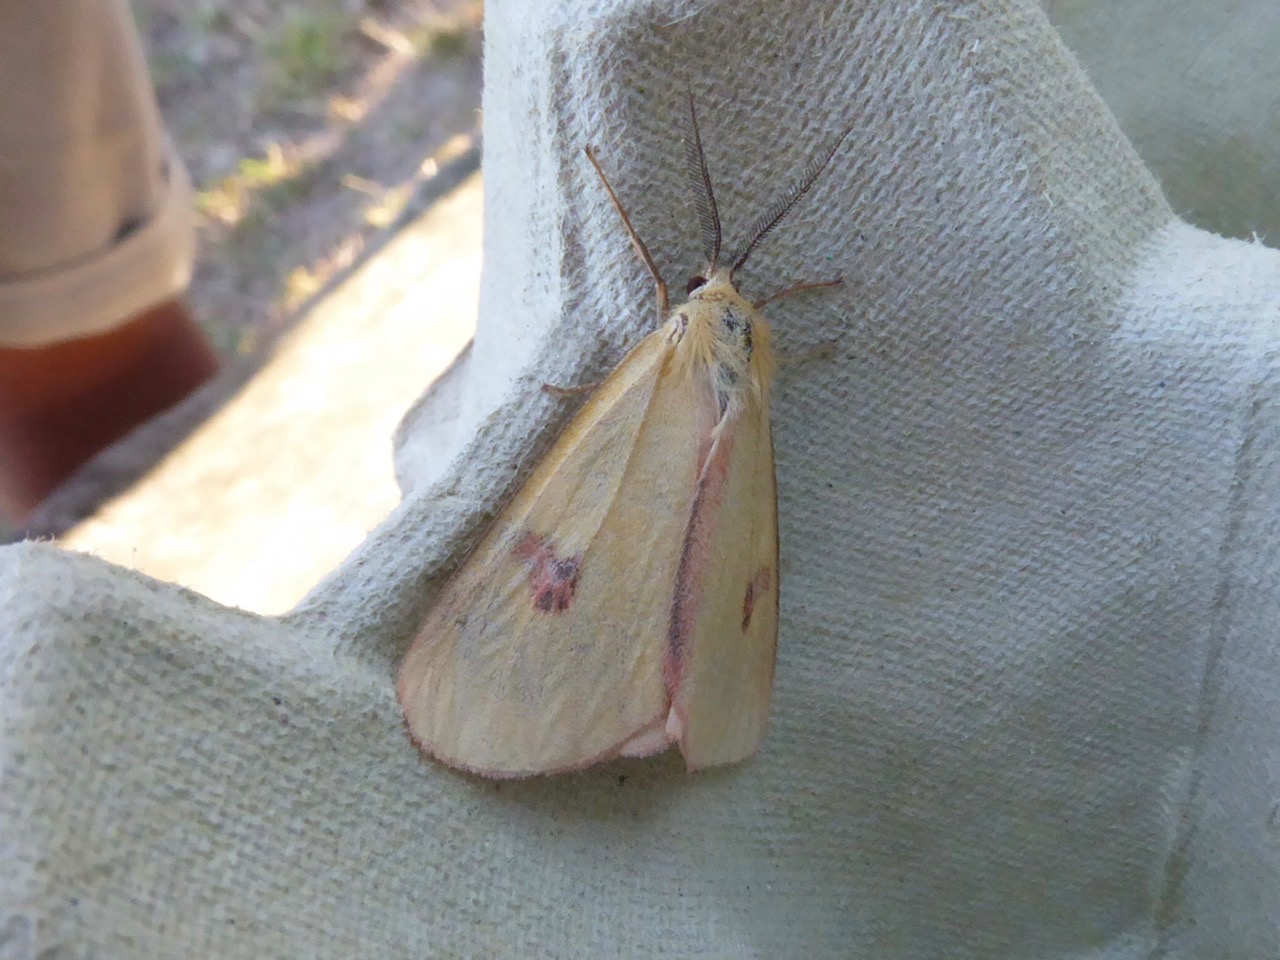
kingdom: Animalia
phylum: Arthropoda
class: Insecta
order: Lepidoptera
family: Erebidae
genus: Diacrisia
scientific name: Diacrisia sannio
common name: Rødfrynset bjørn
